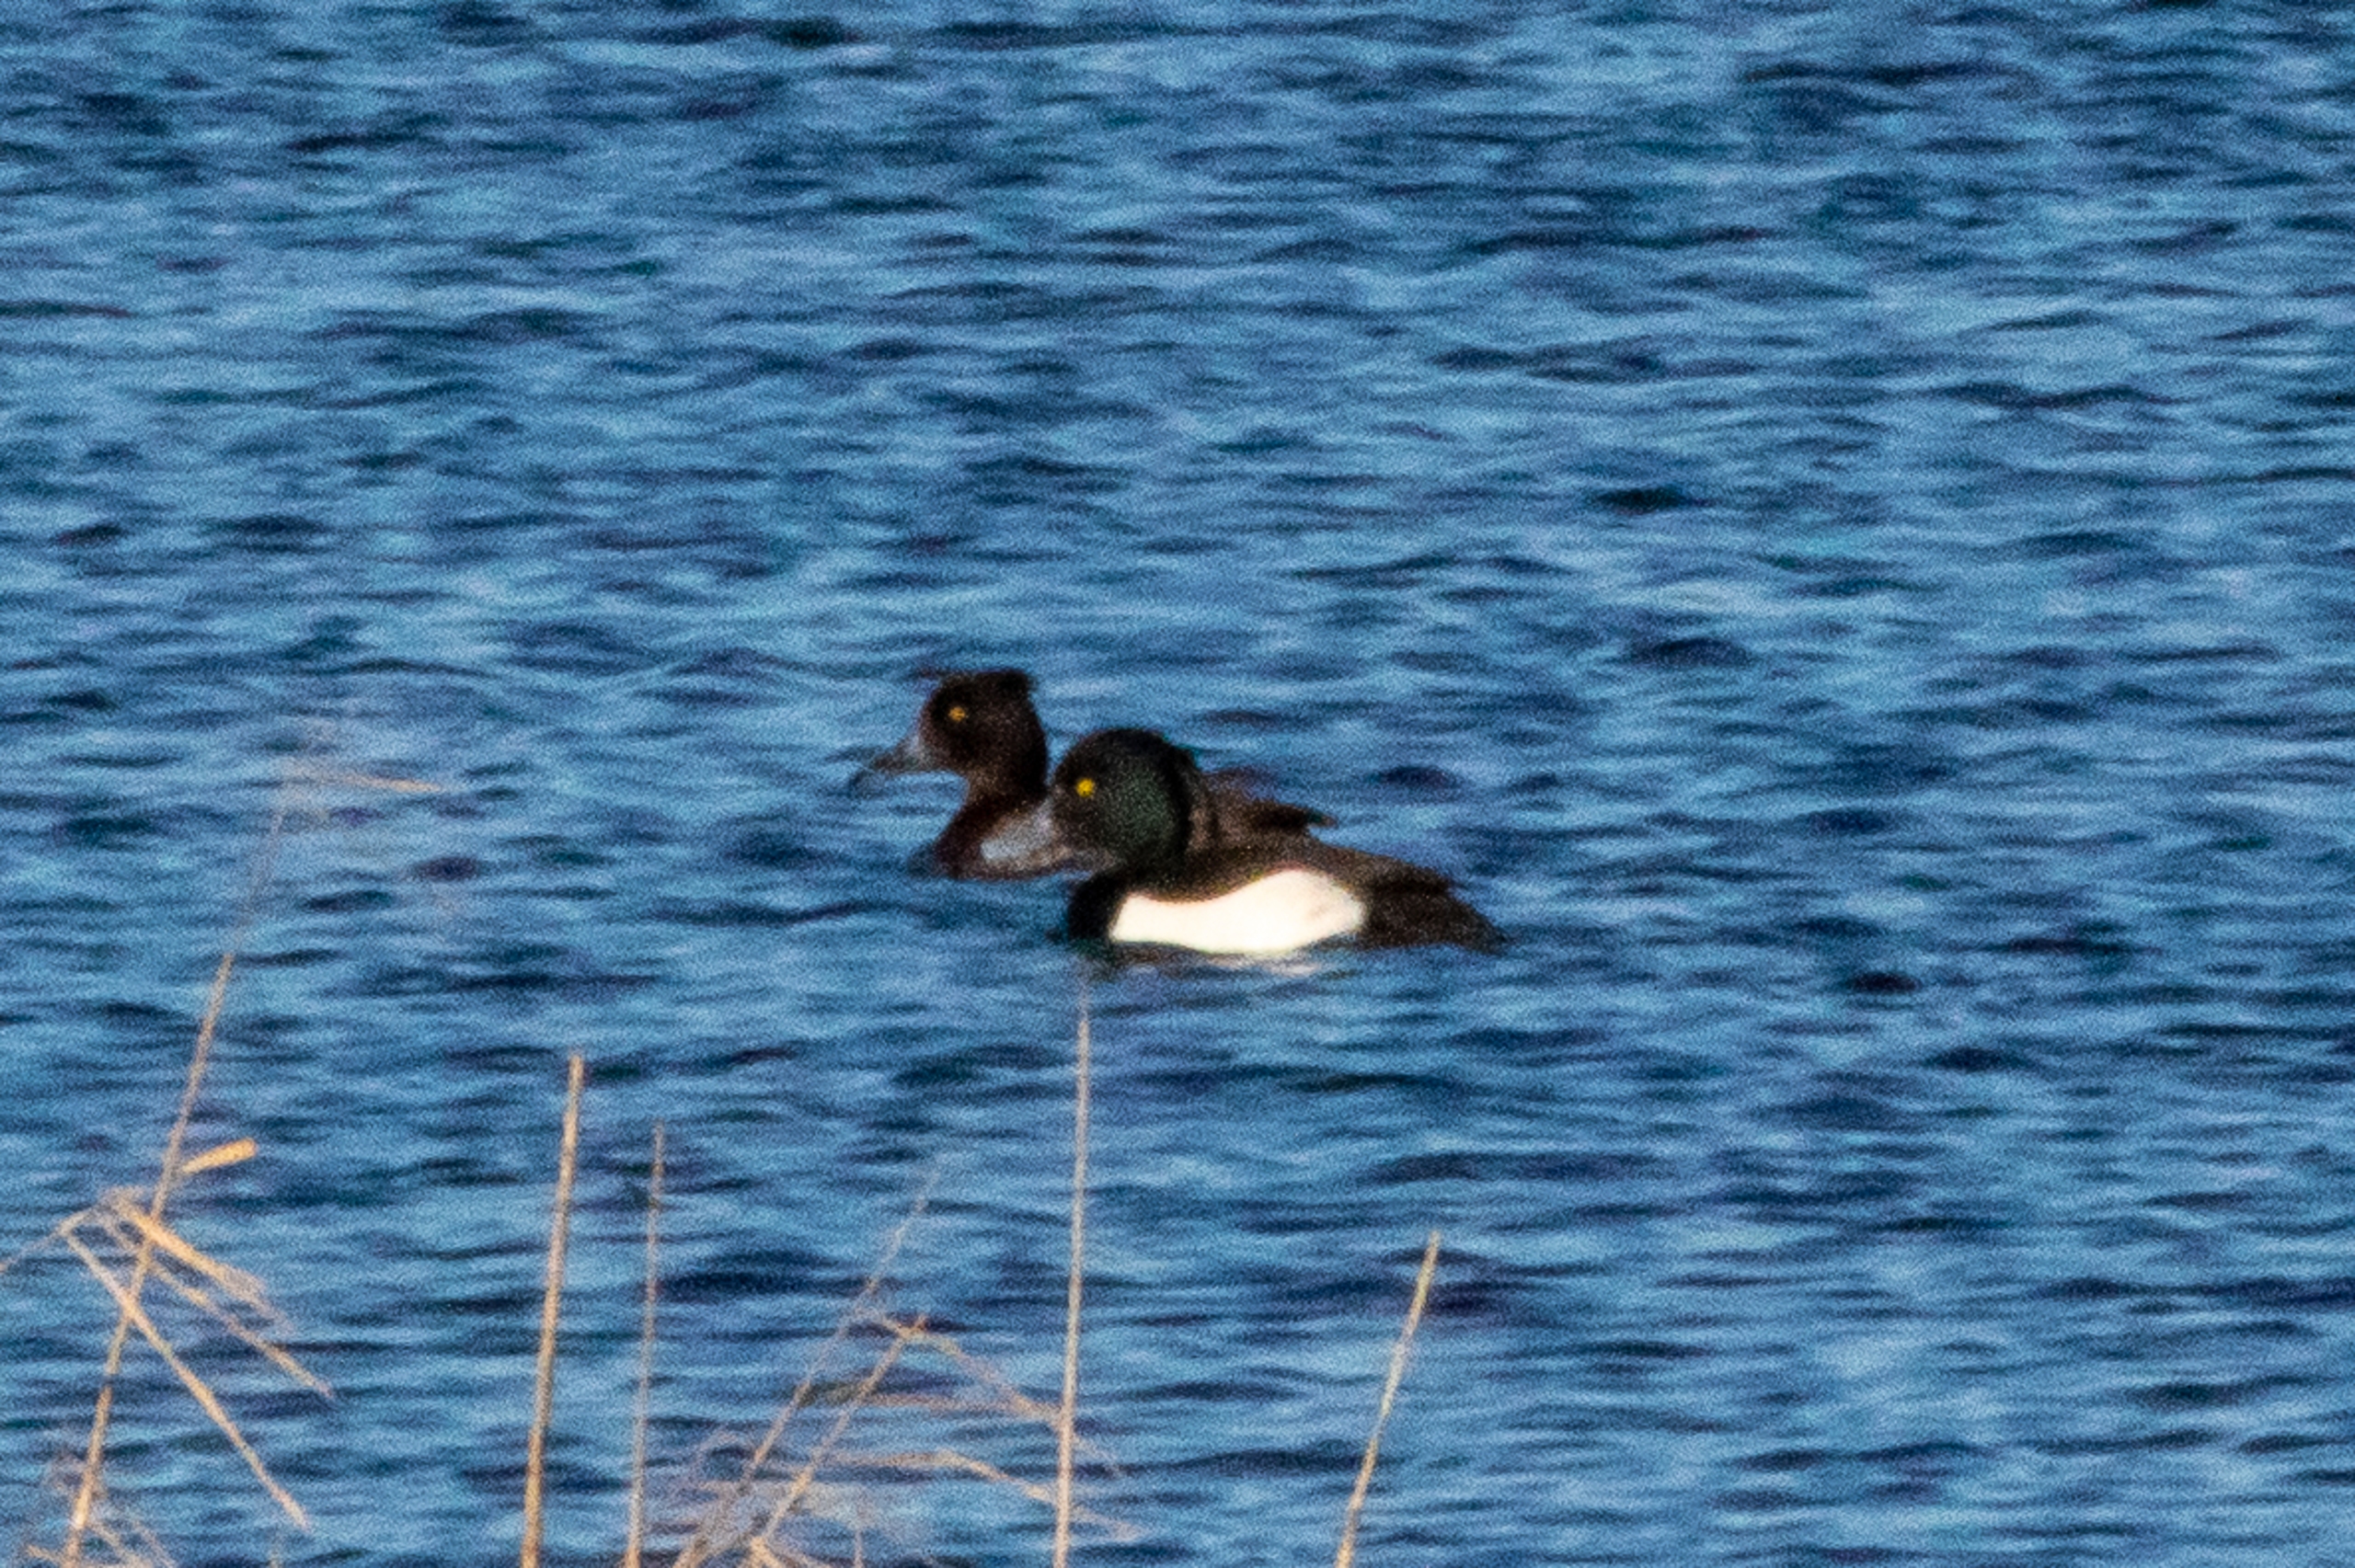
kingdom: Animalia
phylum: Chordata
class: Aves
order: Anseriformes
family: Anatidae
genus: Aythya
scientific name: Aythya fuligula
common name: Troldand
